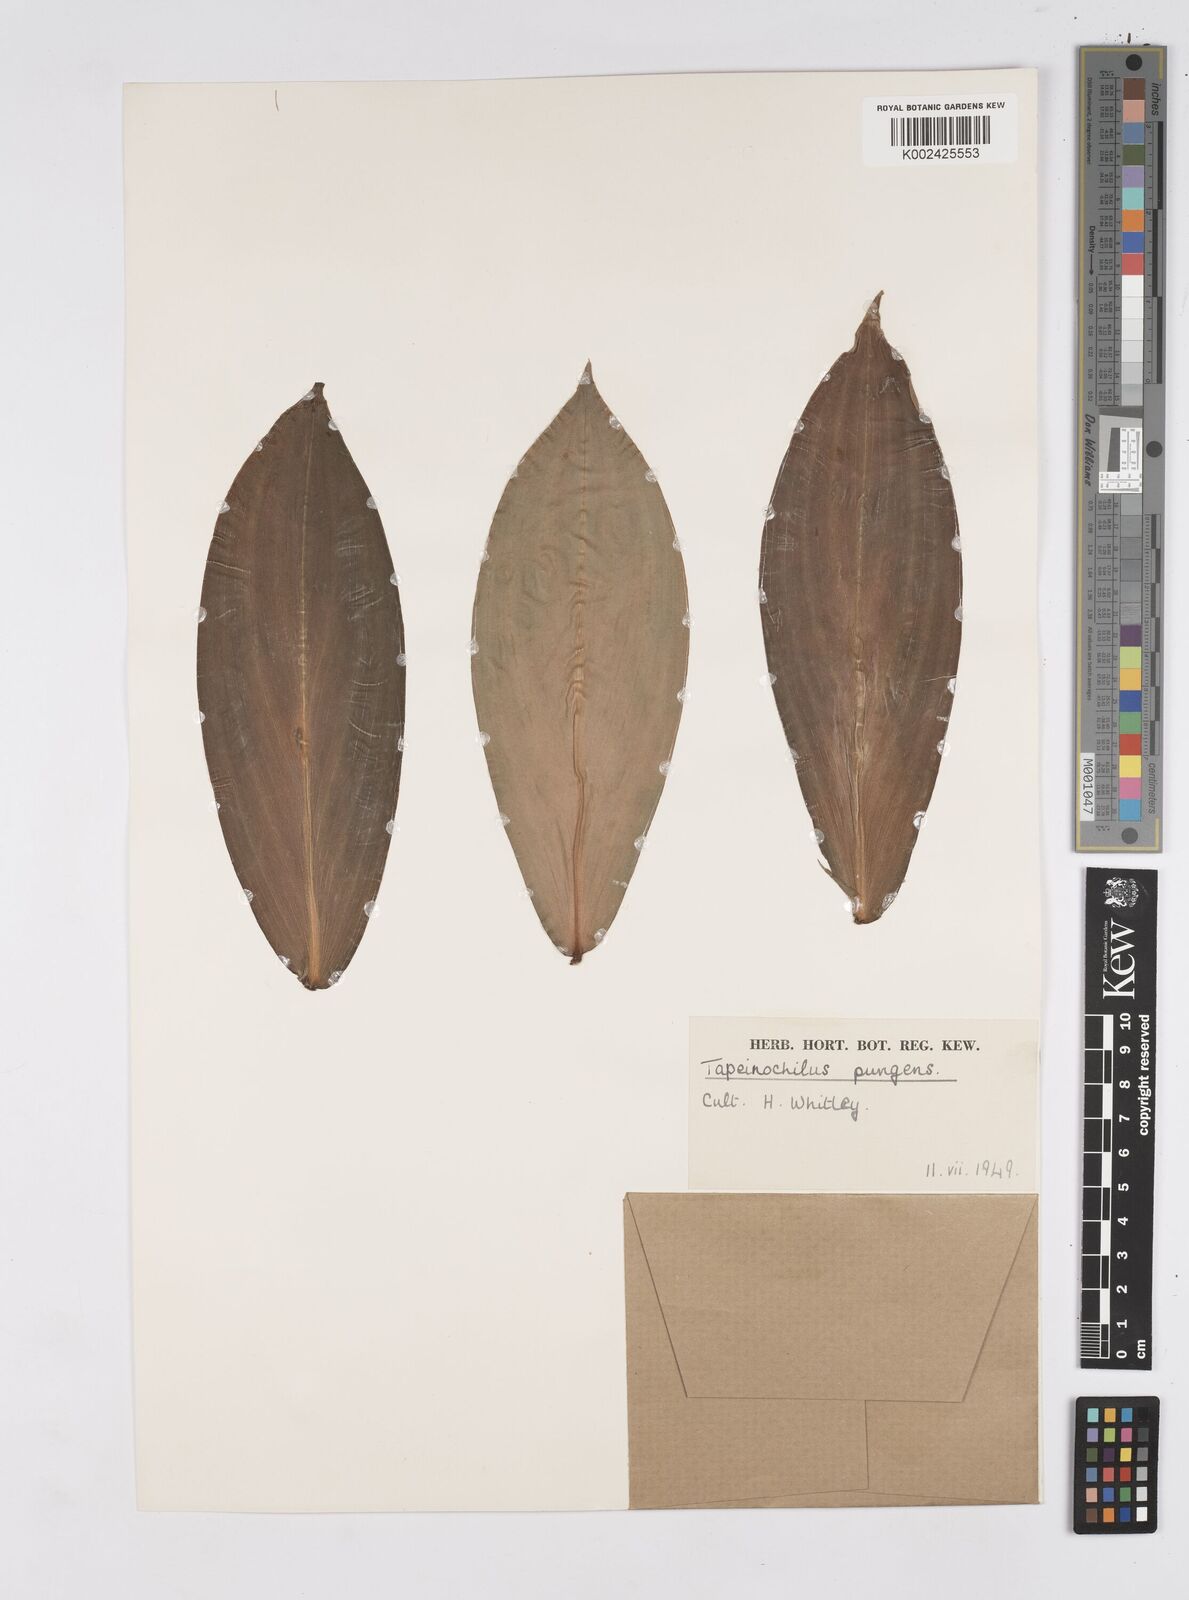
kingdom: Plantae
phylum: Tracheophyta
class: Liliopsida
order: Zingiberales
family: Costaceae
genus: Tapeinochilos
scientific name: Tapeinochilos ananassae
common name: Torch-ginger
